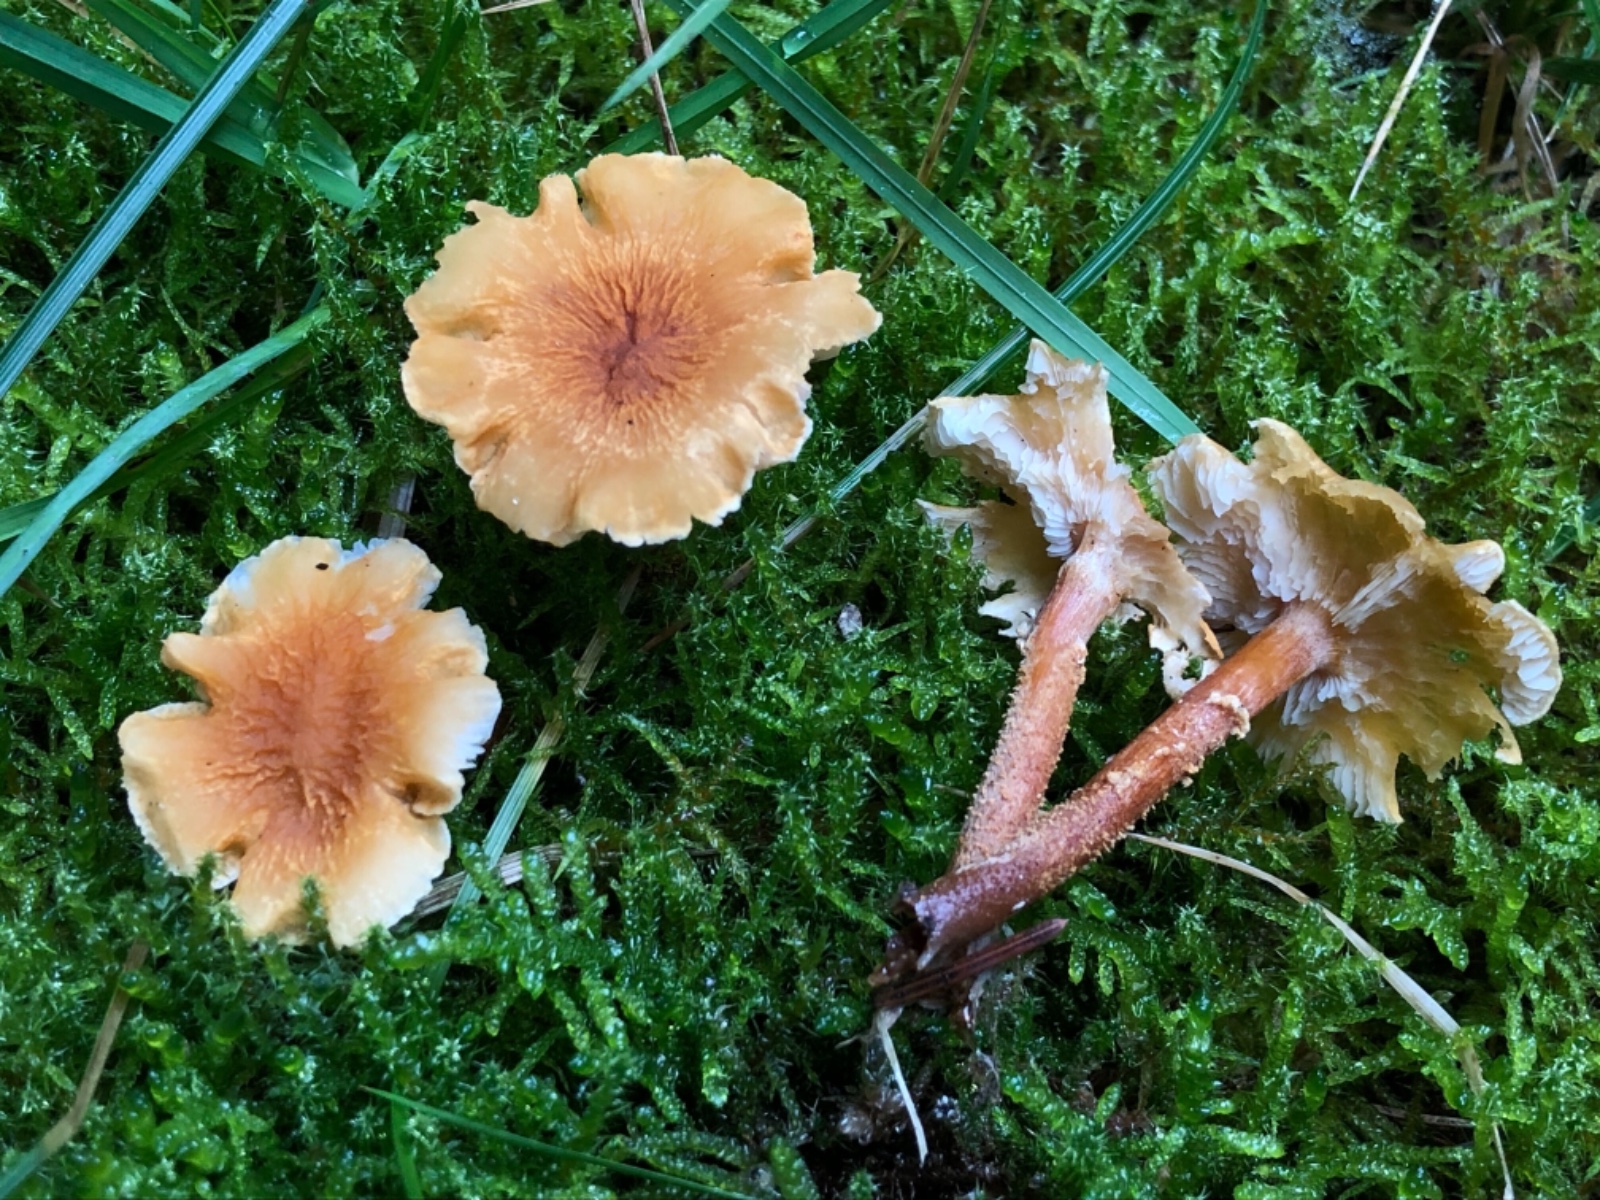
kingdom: Fungi
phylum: Basidiomycota
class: Agaricomycetes
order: Agaricales
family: Tricholomataceae
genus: Cystoderma
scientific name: Cystoderma amianthinum
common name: okkergul grynhat
